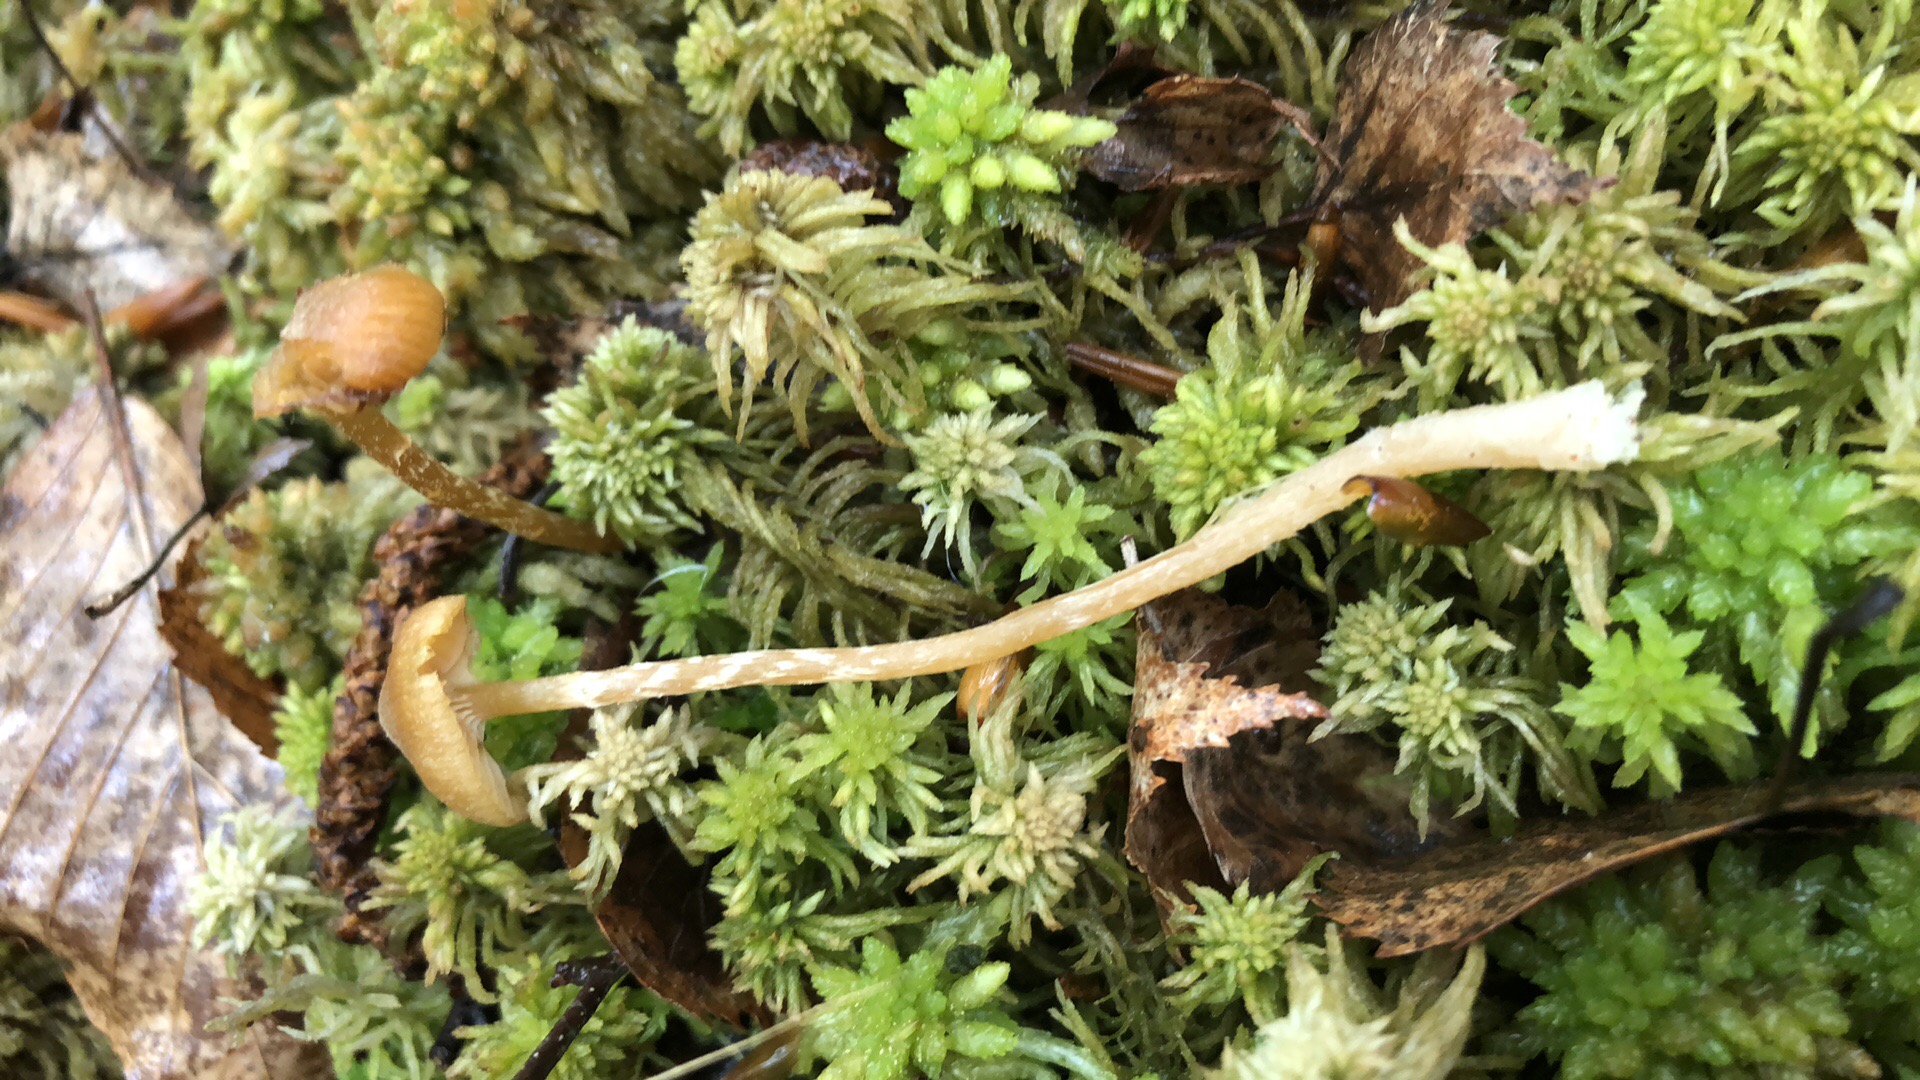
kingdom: Fungi
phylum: Basidiomycota
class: Agaricomycetes
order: Agaricales
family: Hymenogastraceae
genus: Galerina
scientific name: Galerina paludosa
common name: mose-hjelmhat
